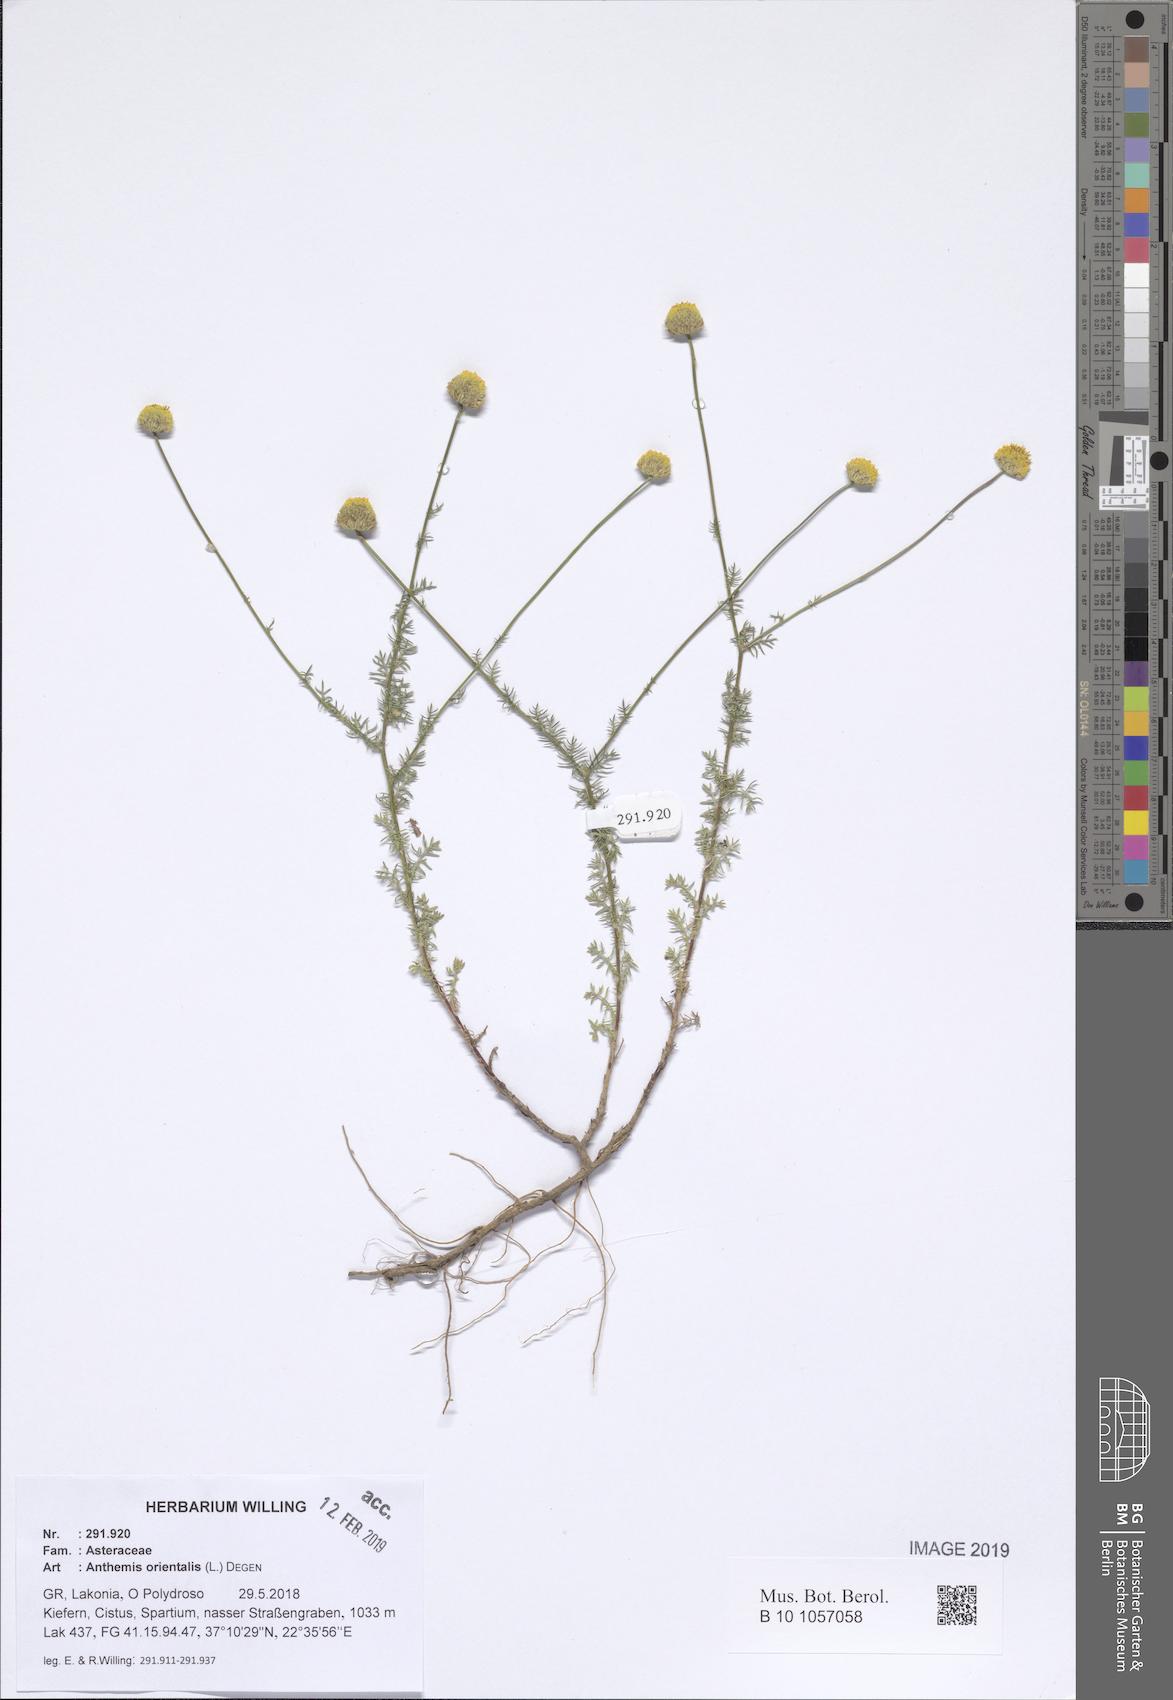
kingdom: Plantae
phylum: Tracheophyta
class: Magnoliopsida
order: Asterales
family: Asteraceae
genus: Anthemis
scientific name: Anthemis orientalis
